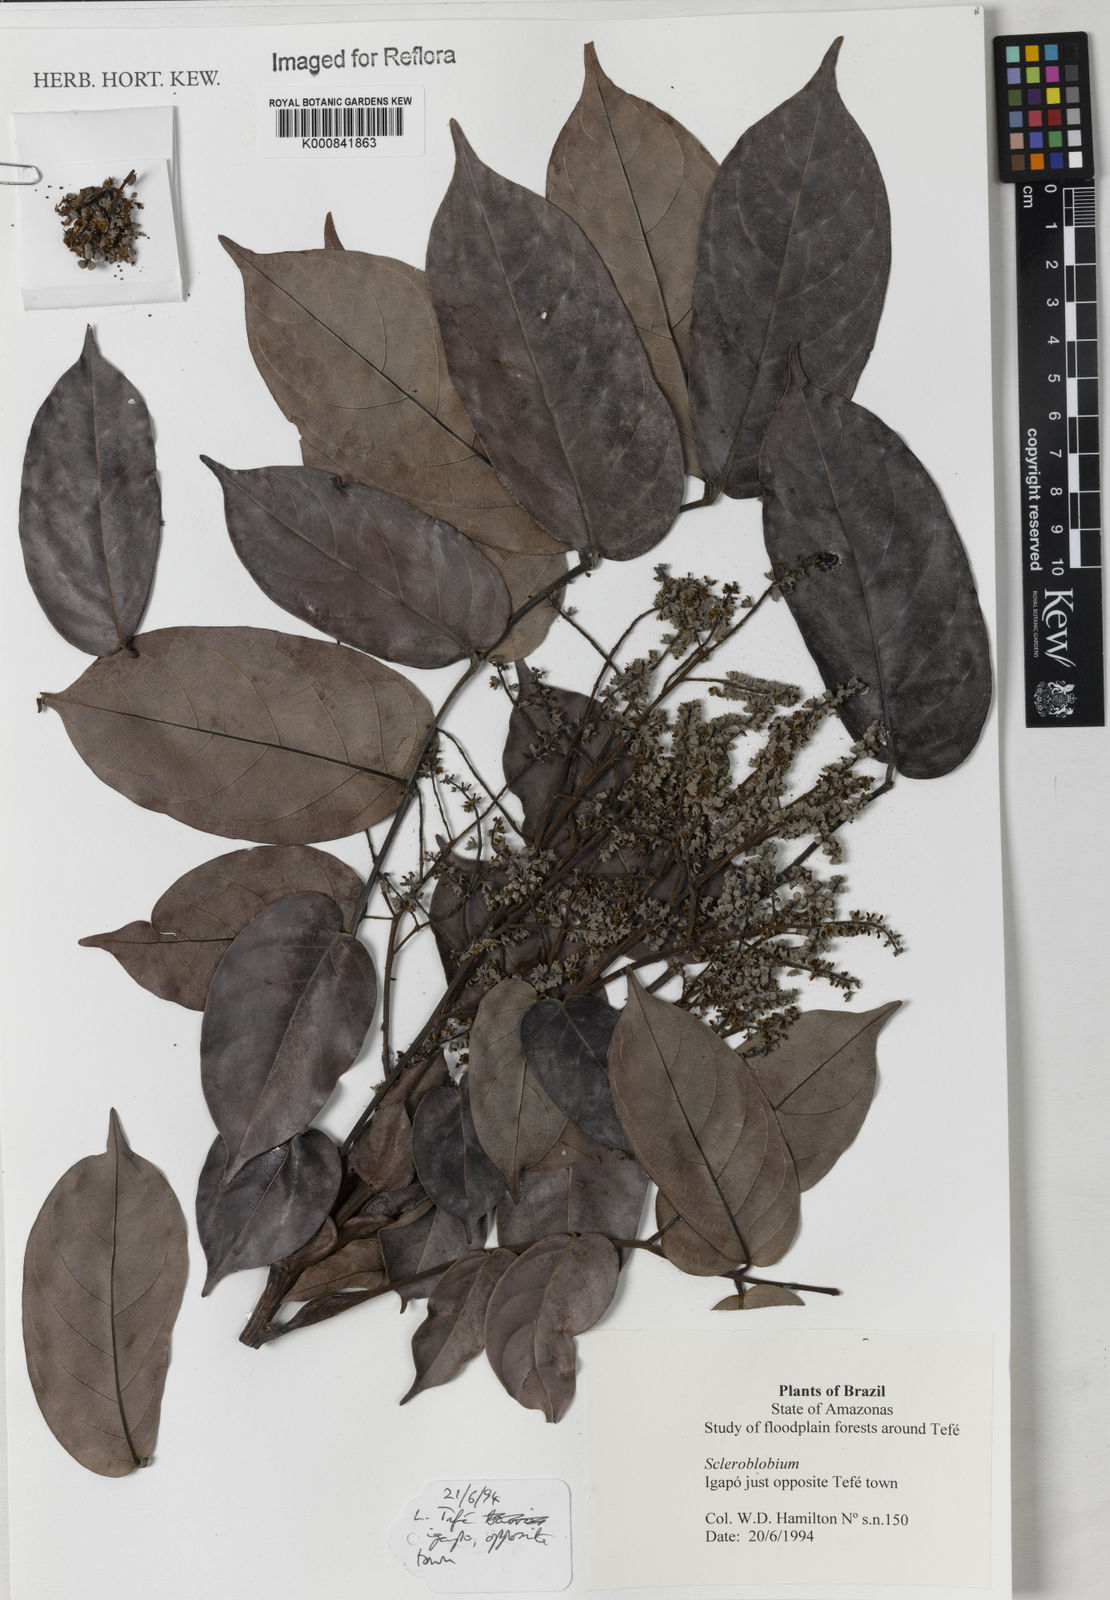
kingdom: Plantae
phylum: Tracheophyta
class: Magnoliopsida
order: Fabales
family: Fabaceae
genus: Tachigali
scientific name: Tachigali
